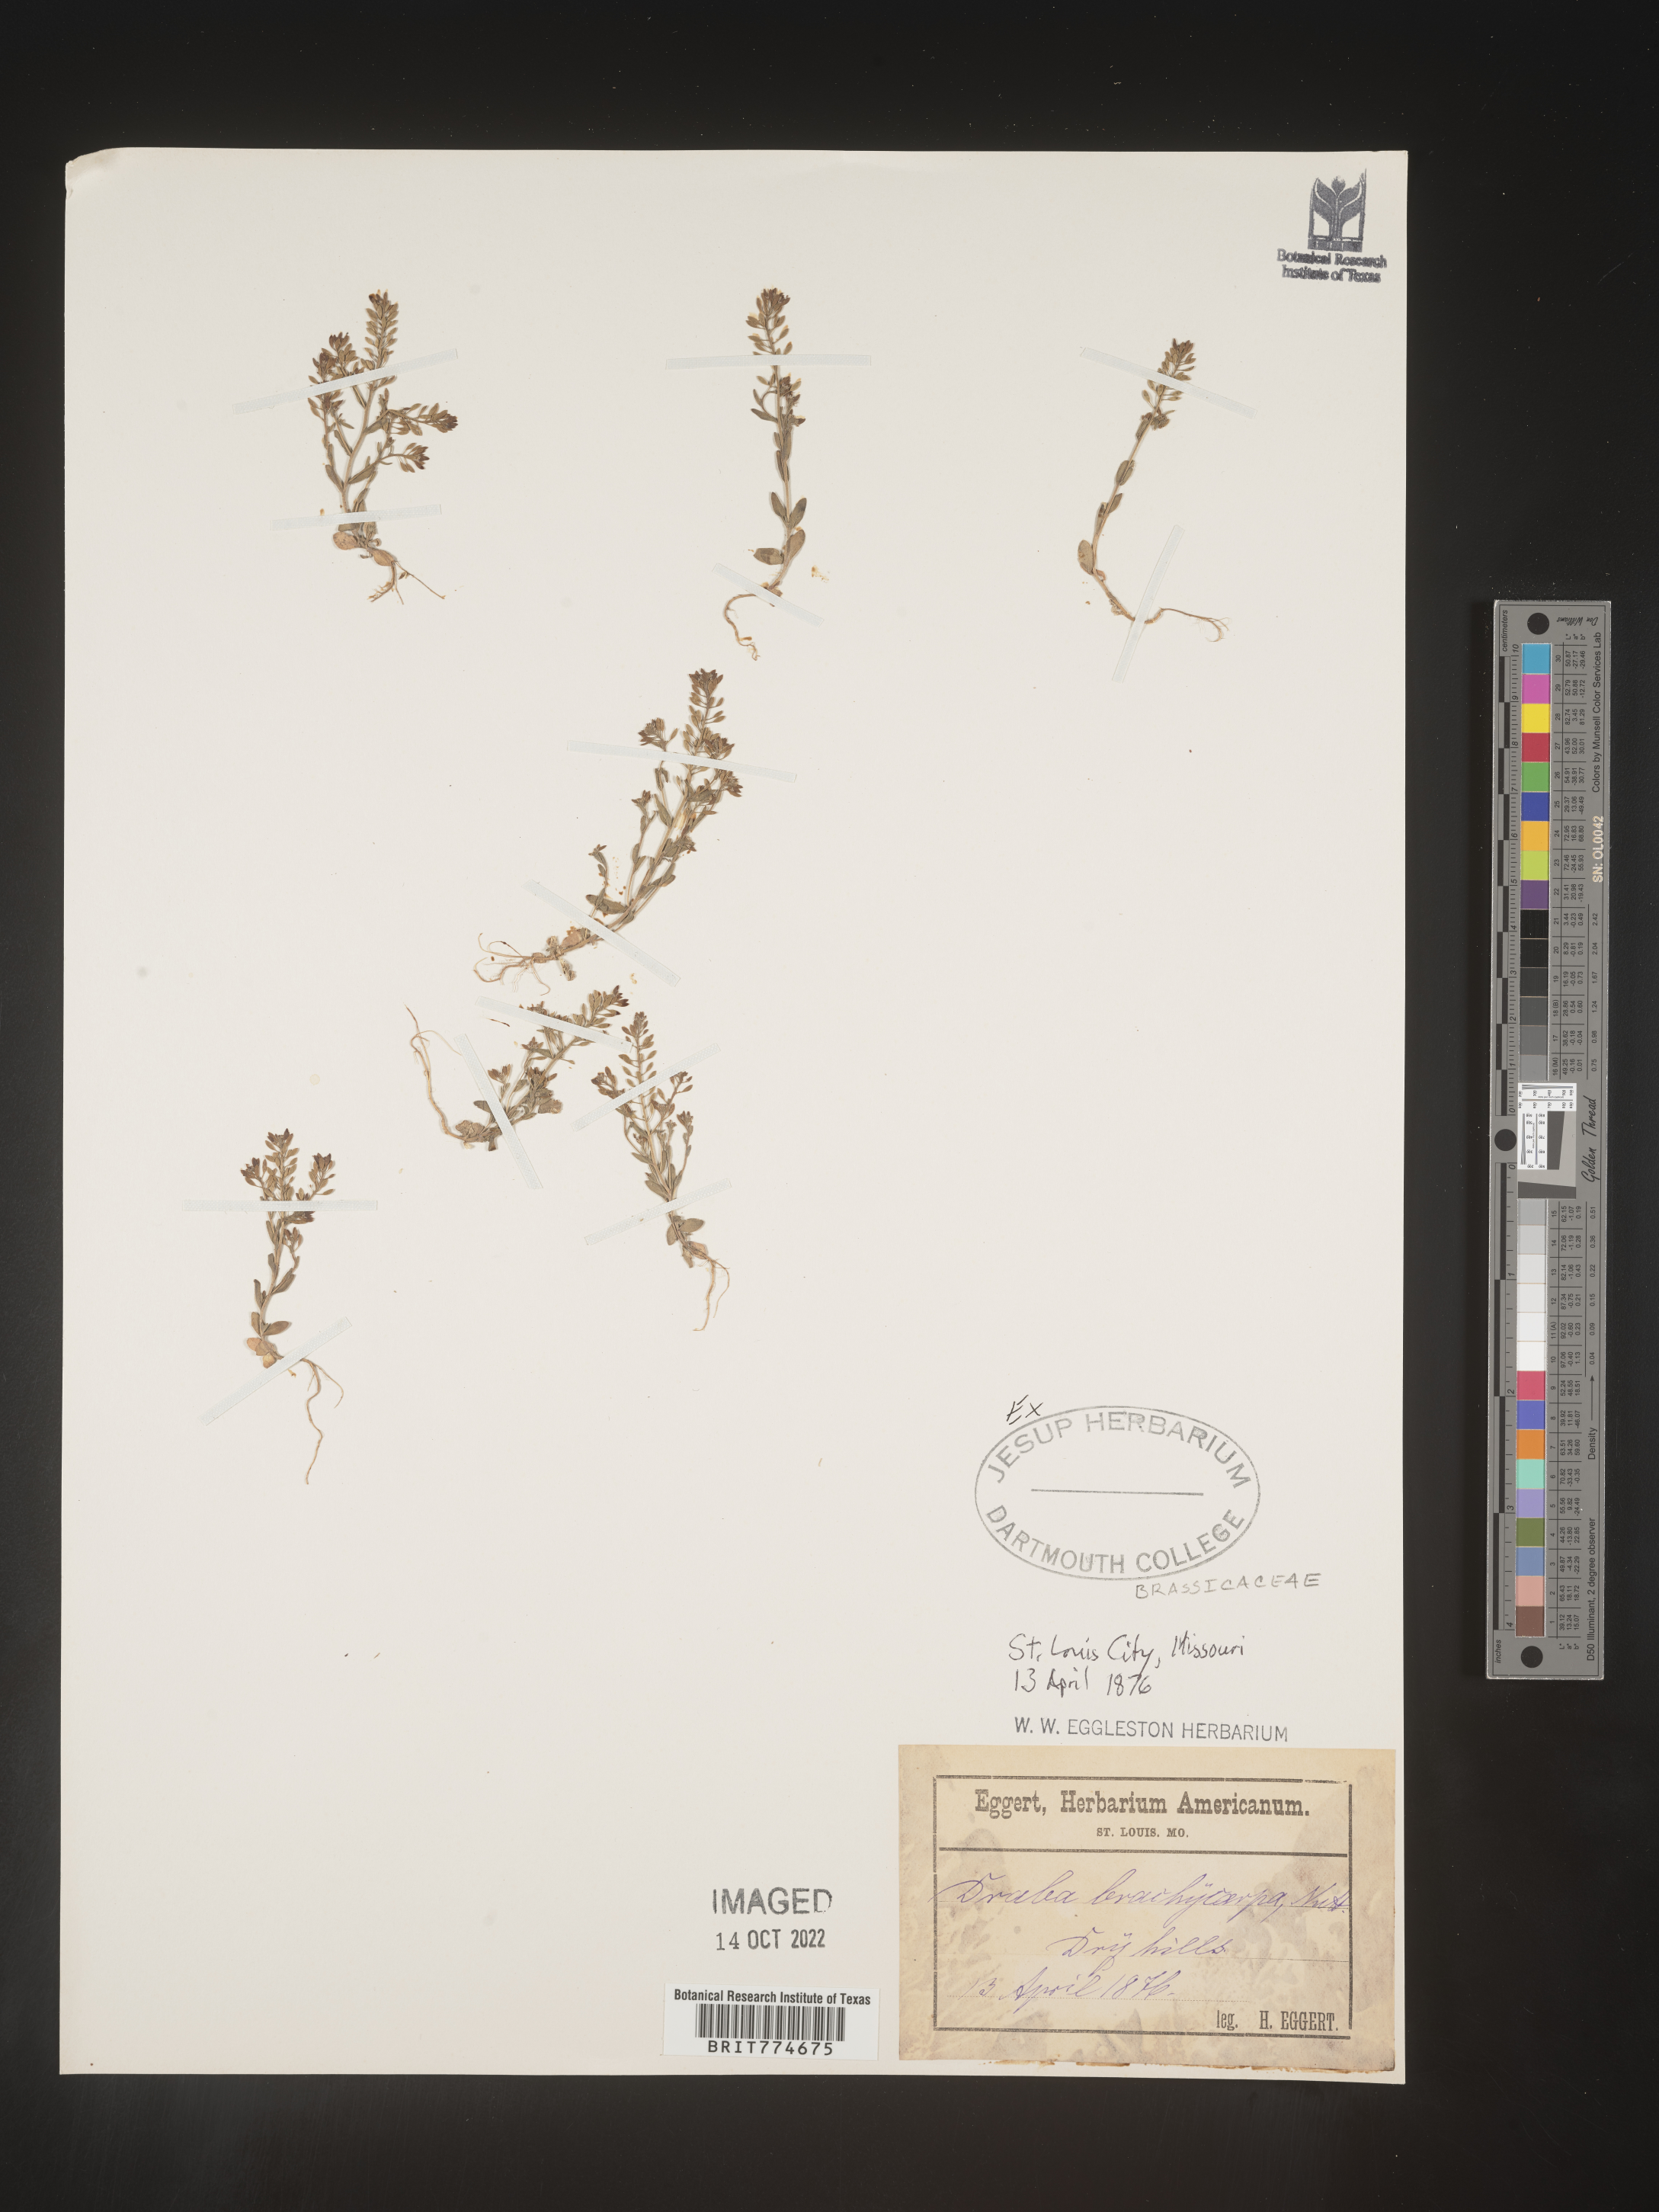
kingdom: Plantae
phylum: Tracheophyta
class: Magnoliopsida
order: Brassicales
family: Brassicaceae
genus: Abdra
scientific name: Abdra brachycarpa
